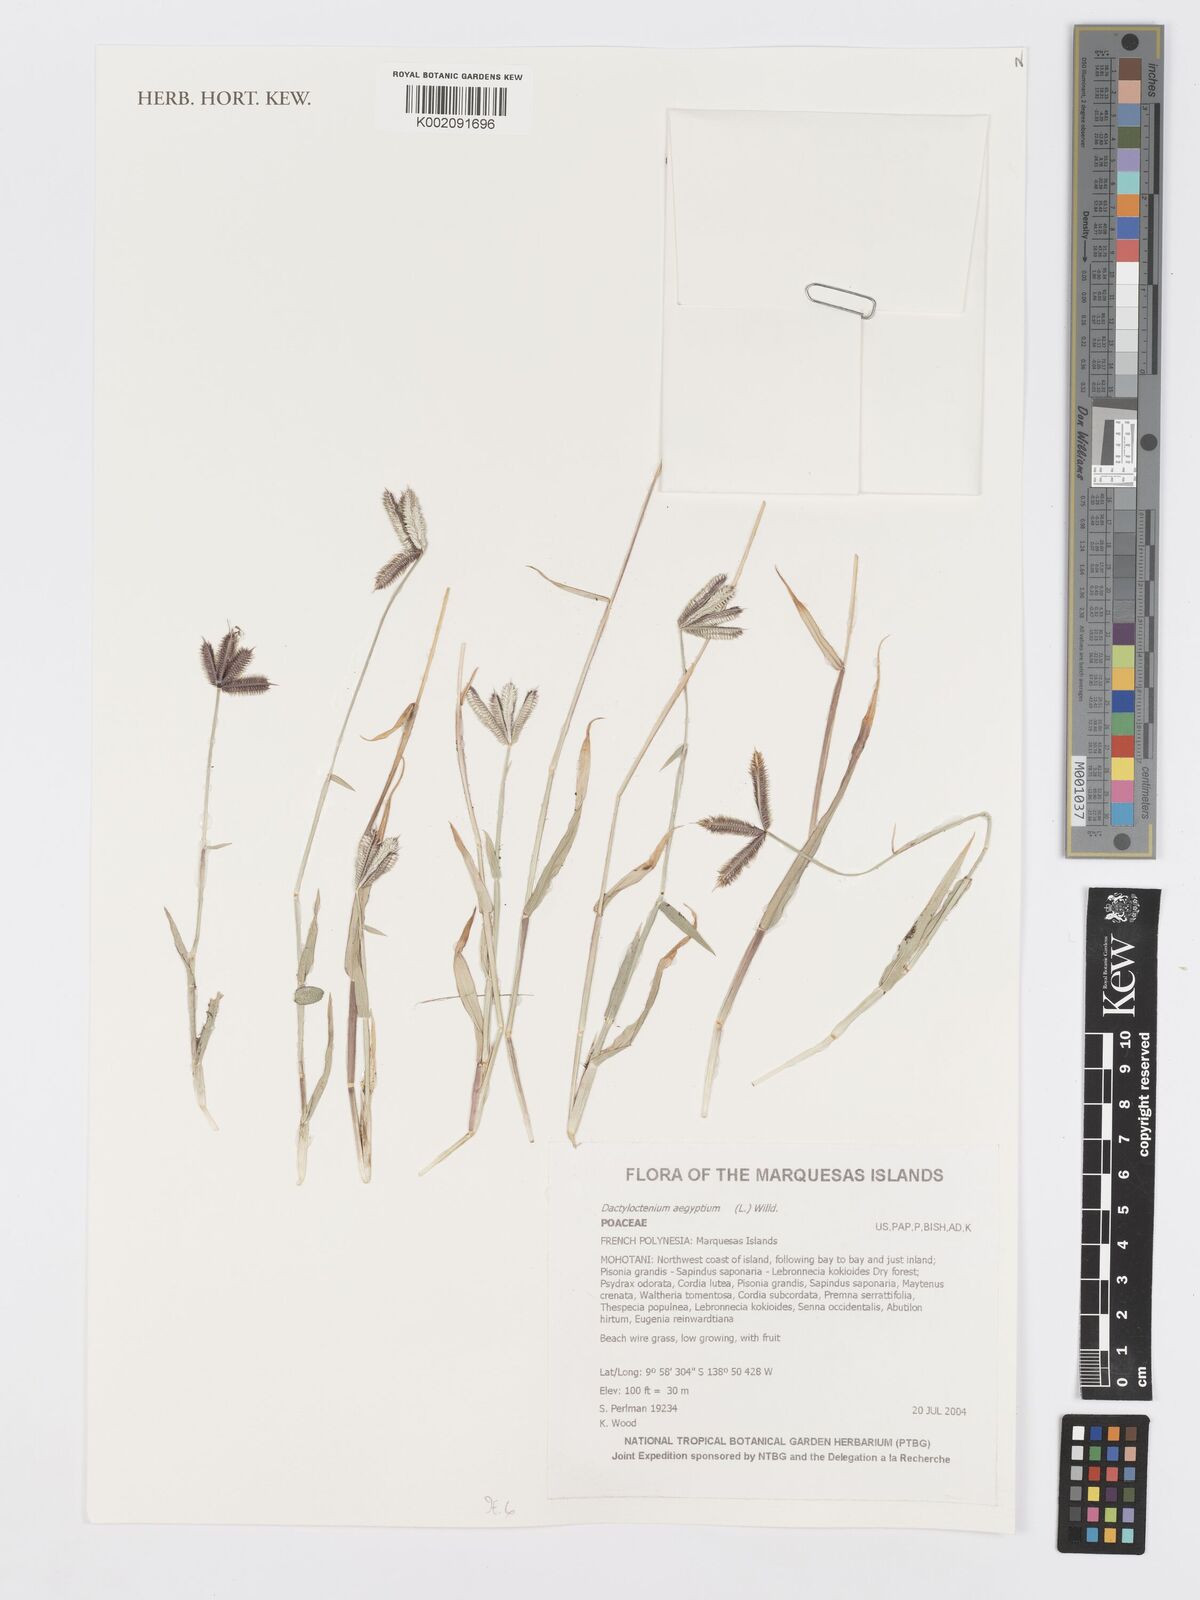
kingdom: Plantae
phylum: Tracheophyta
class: Liliopsida
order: Poales
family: Poaceae
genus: Dactyloctenium
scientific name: Dactyloctenium aegyptium
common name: Egyptian grass
